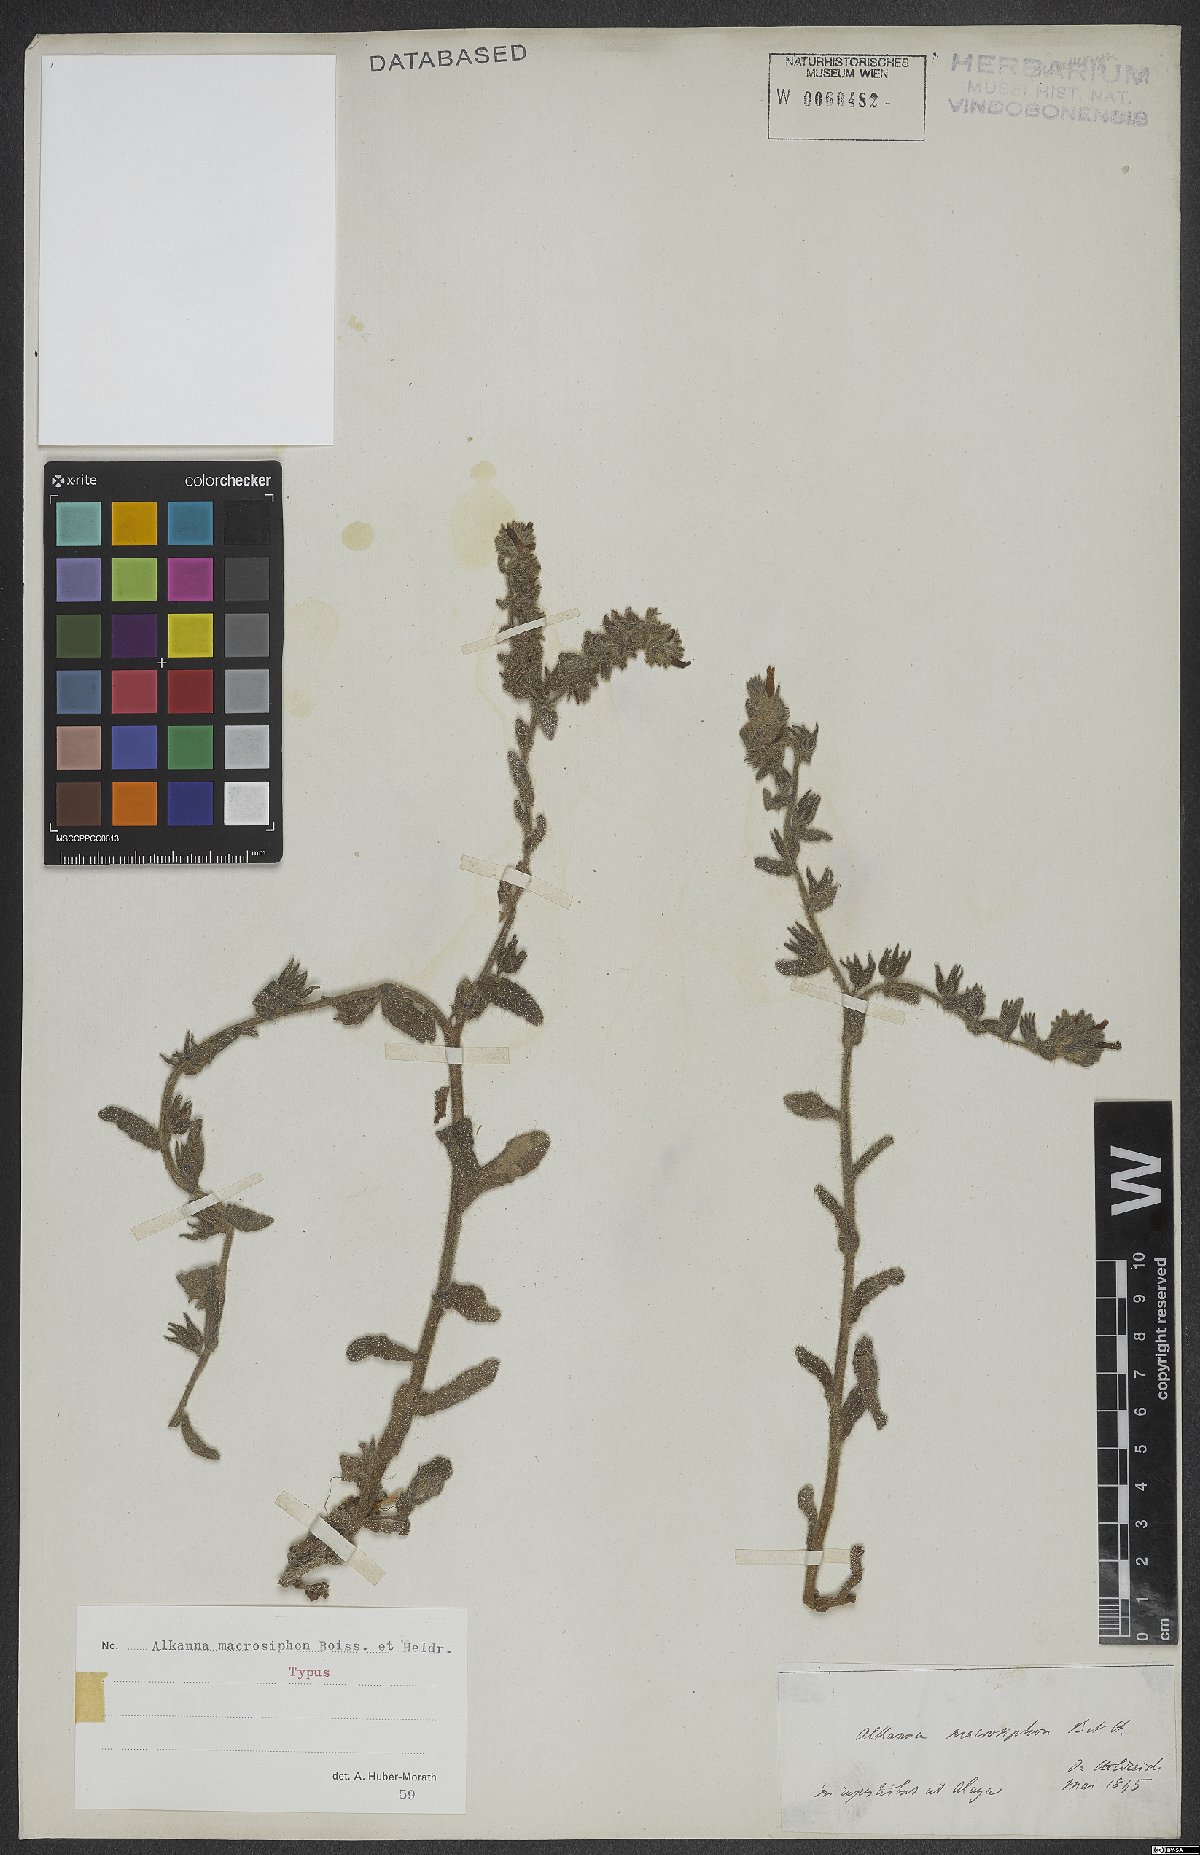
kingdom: Plantae
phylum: Tracheophyta
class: Magnoliopsida
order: Boraginales
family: Boraginaceae
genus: Alkanna
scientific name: Alkanna macrosiphon
